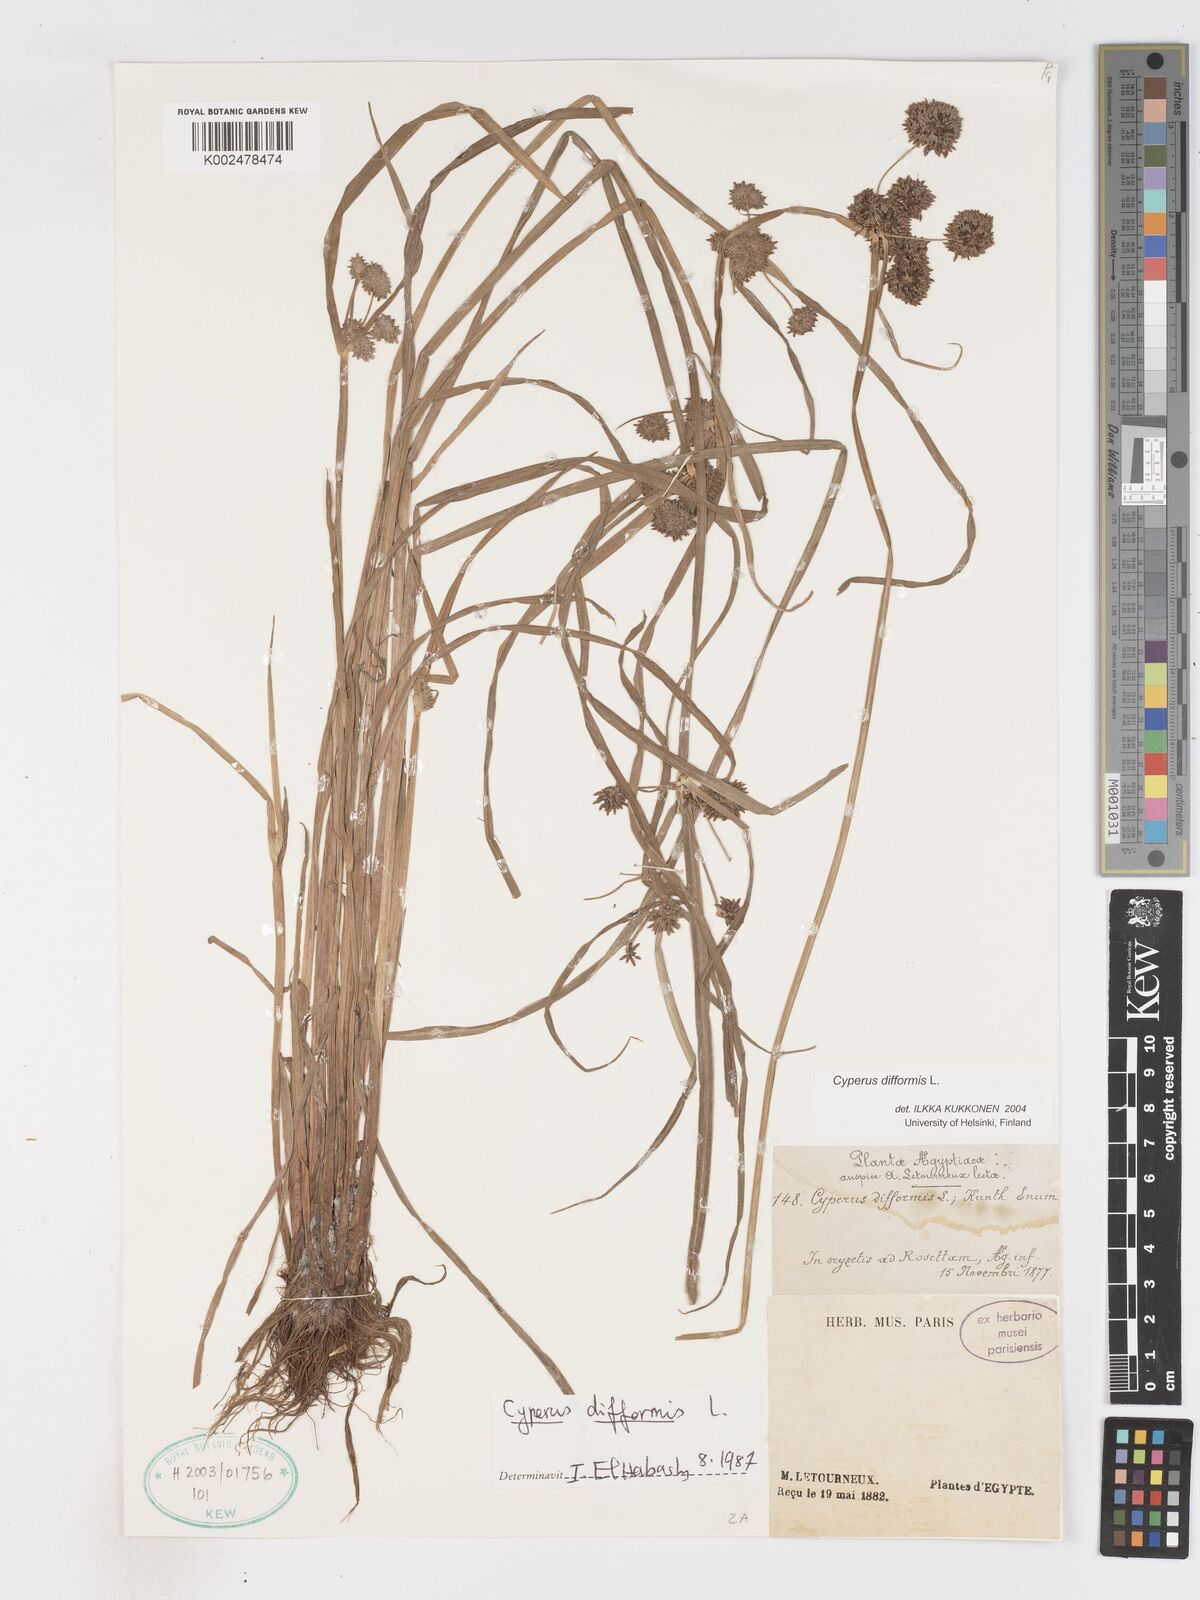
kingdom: Plantae
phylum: Tracheophyta
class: Liliopsida
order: Poales
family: Cyperaceae
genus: Cyperus
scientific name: Cyperus difformis
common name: Variable flatsedge
